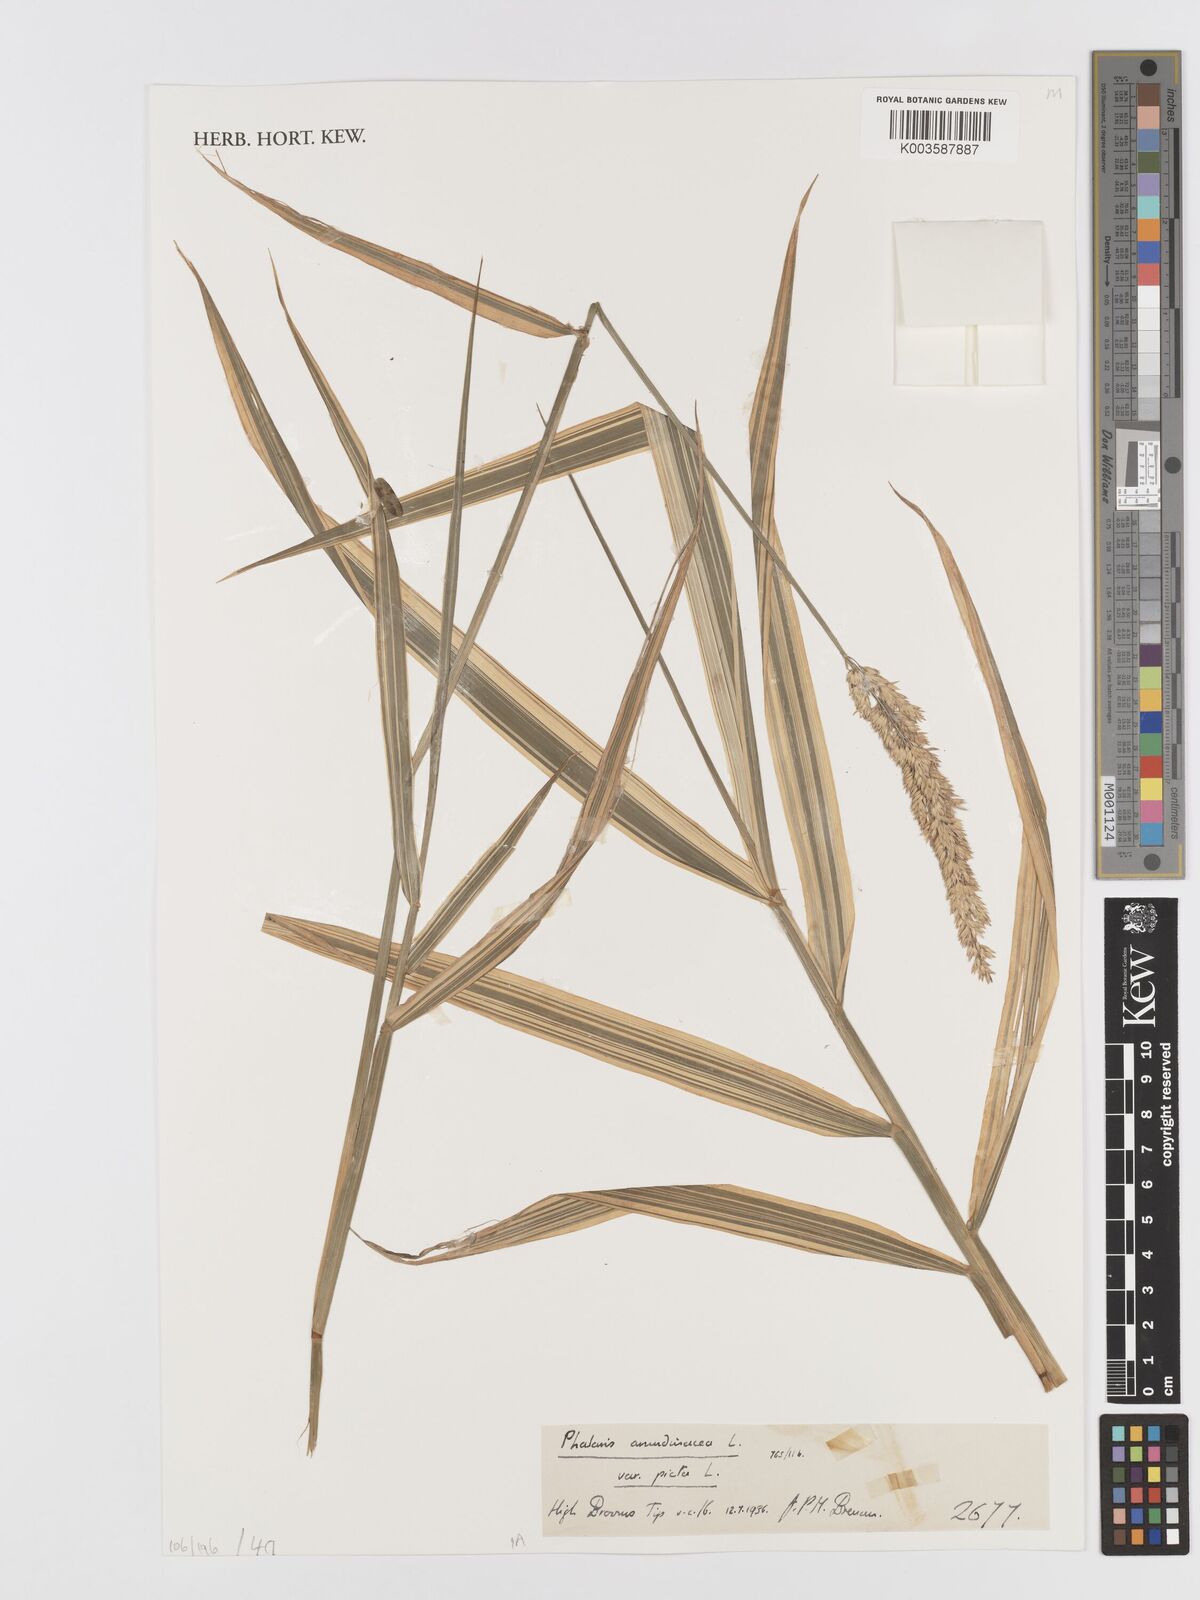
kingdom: Plantae
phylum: Tracheophyta
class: Liliopsida
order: Poales
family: Poaceae
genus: Phalaris
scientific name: Phalaris arundinacea
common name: Reed canary-grass
